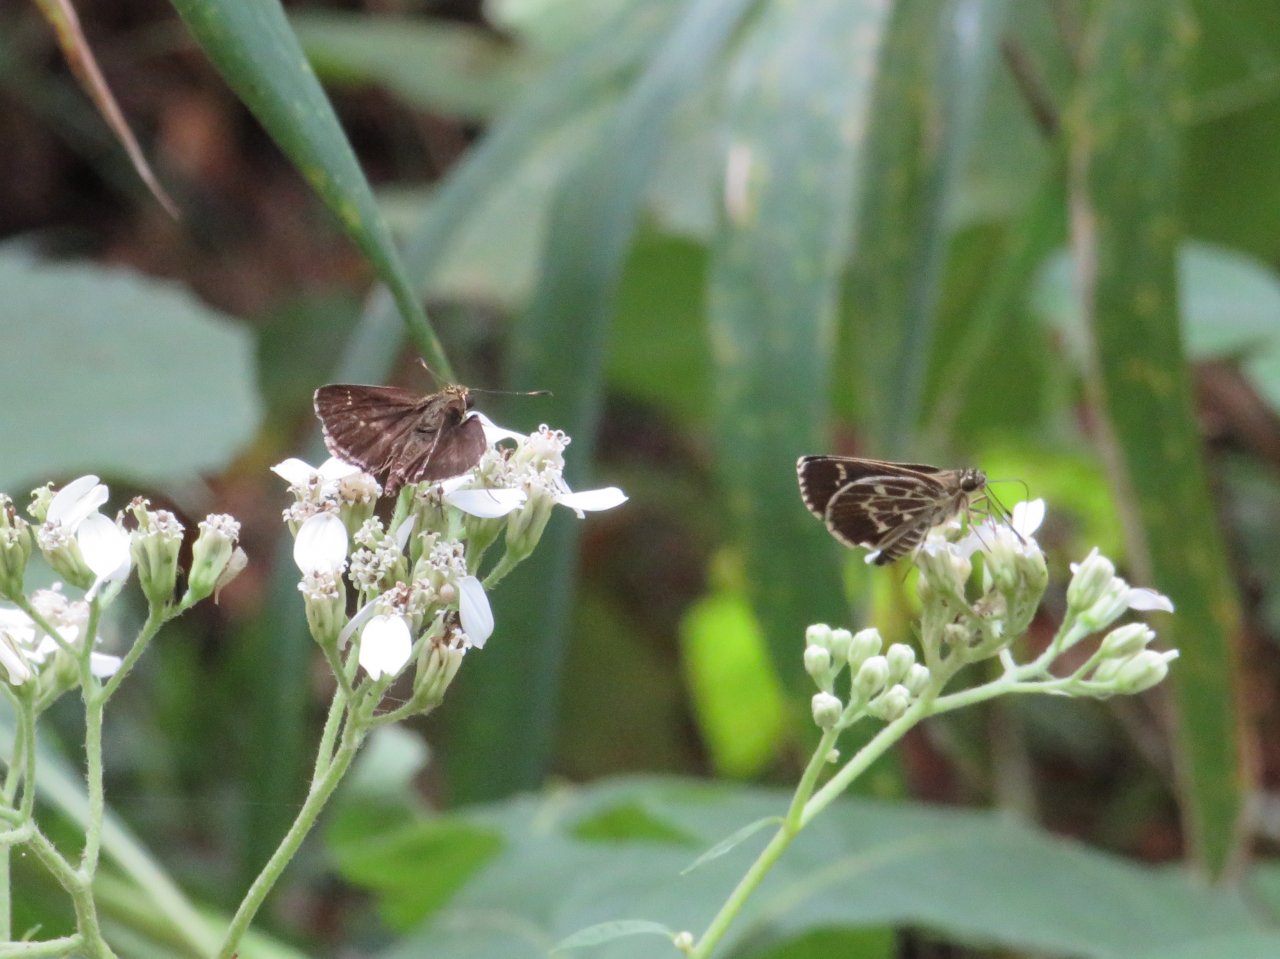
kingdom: Animalia
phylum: Arthropoda
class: Insecta
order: Lepidoptera
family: Hesperiidae
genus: Mastor
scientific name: Mastor aesculapius
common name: Lace-winged Roadside-Skipper
